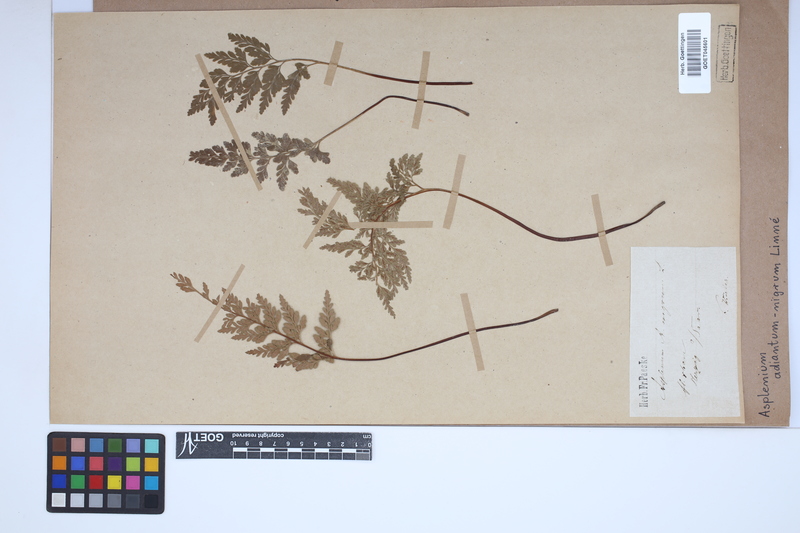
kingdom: Plantae
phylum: Tracheophyta
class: Polypodiopsida
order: Polypodiales
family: Aspleniaceae
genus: Asplenium
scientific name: Asplenium adiantum-nigrum
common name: Black spleenwort
